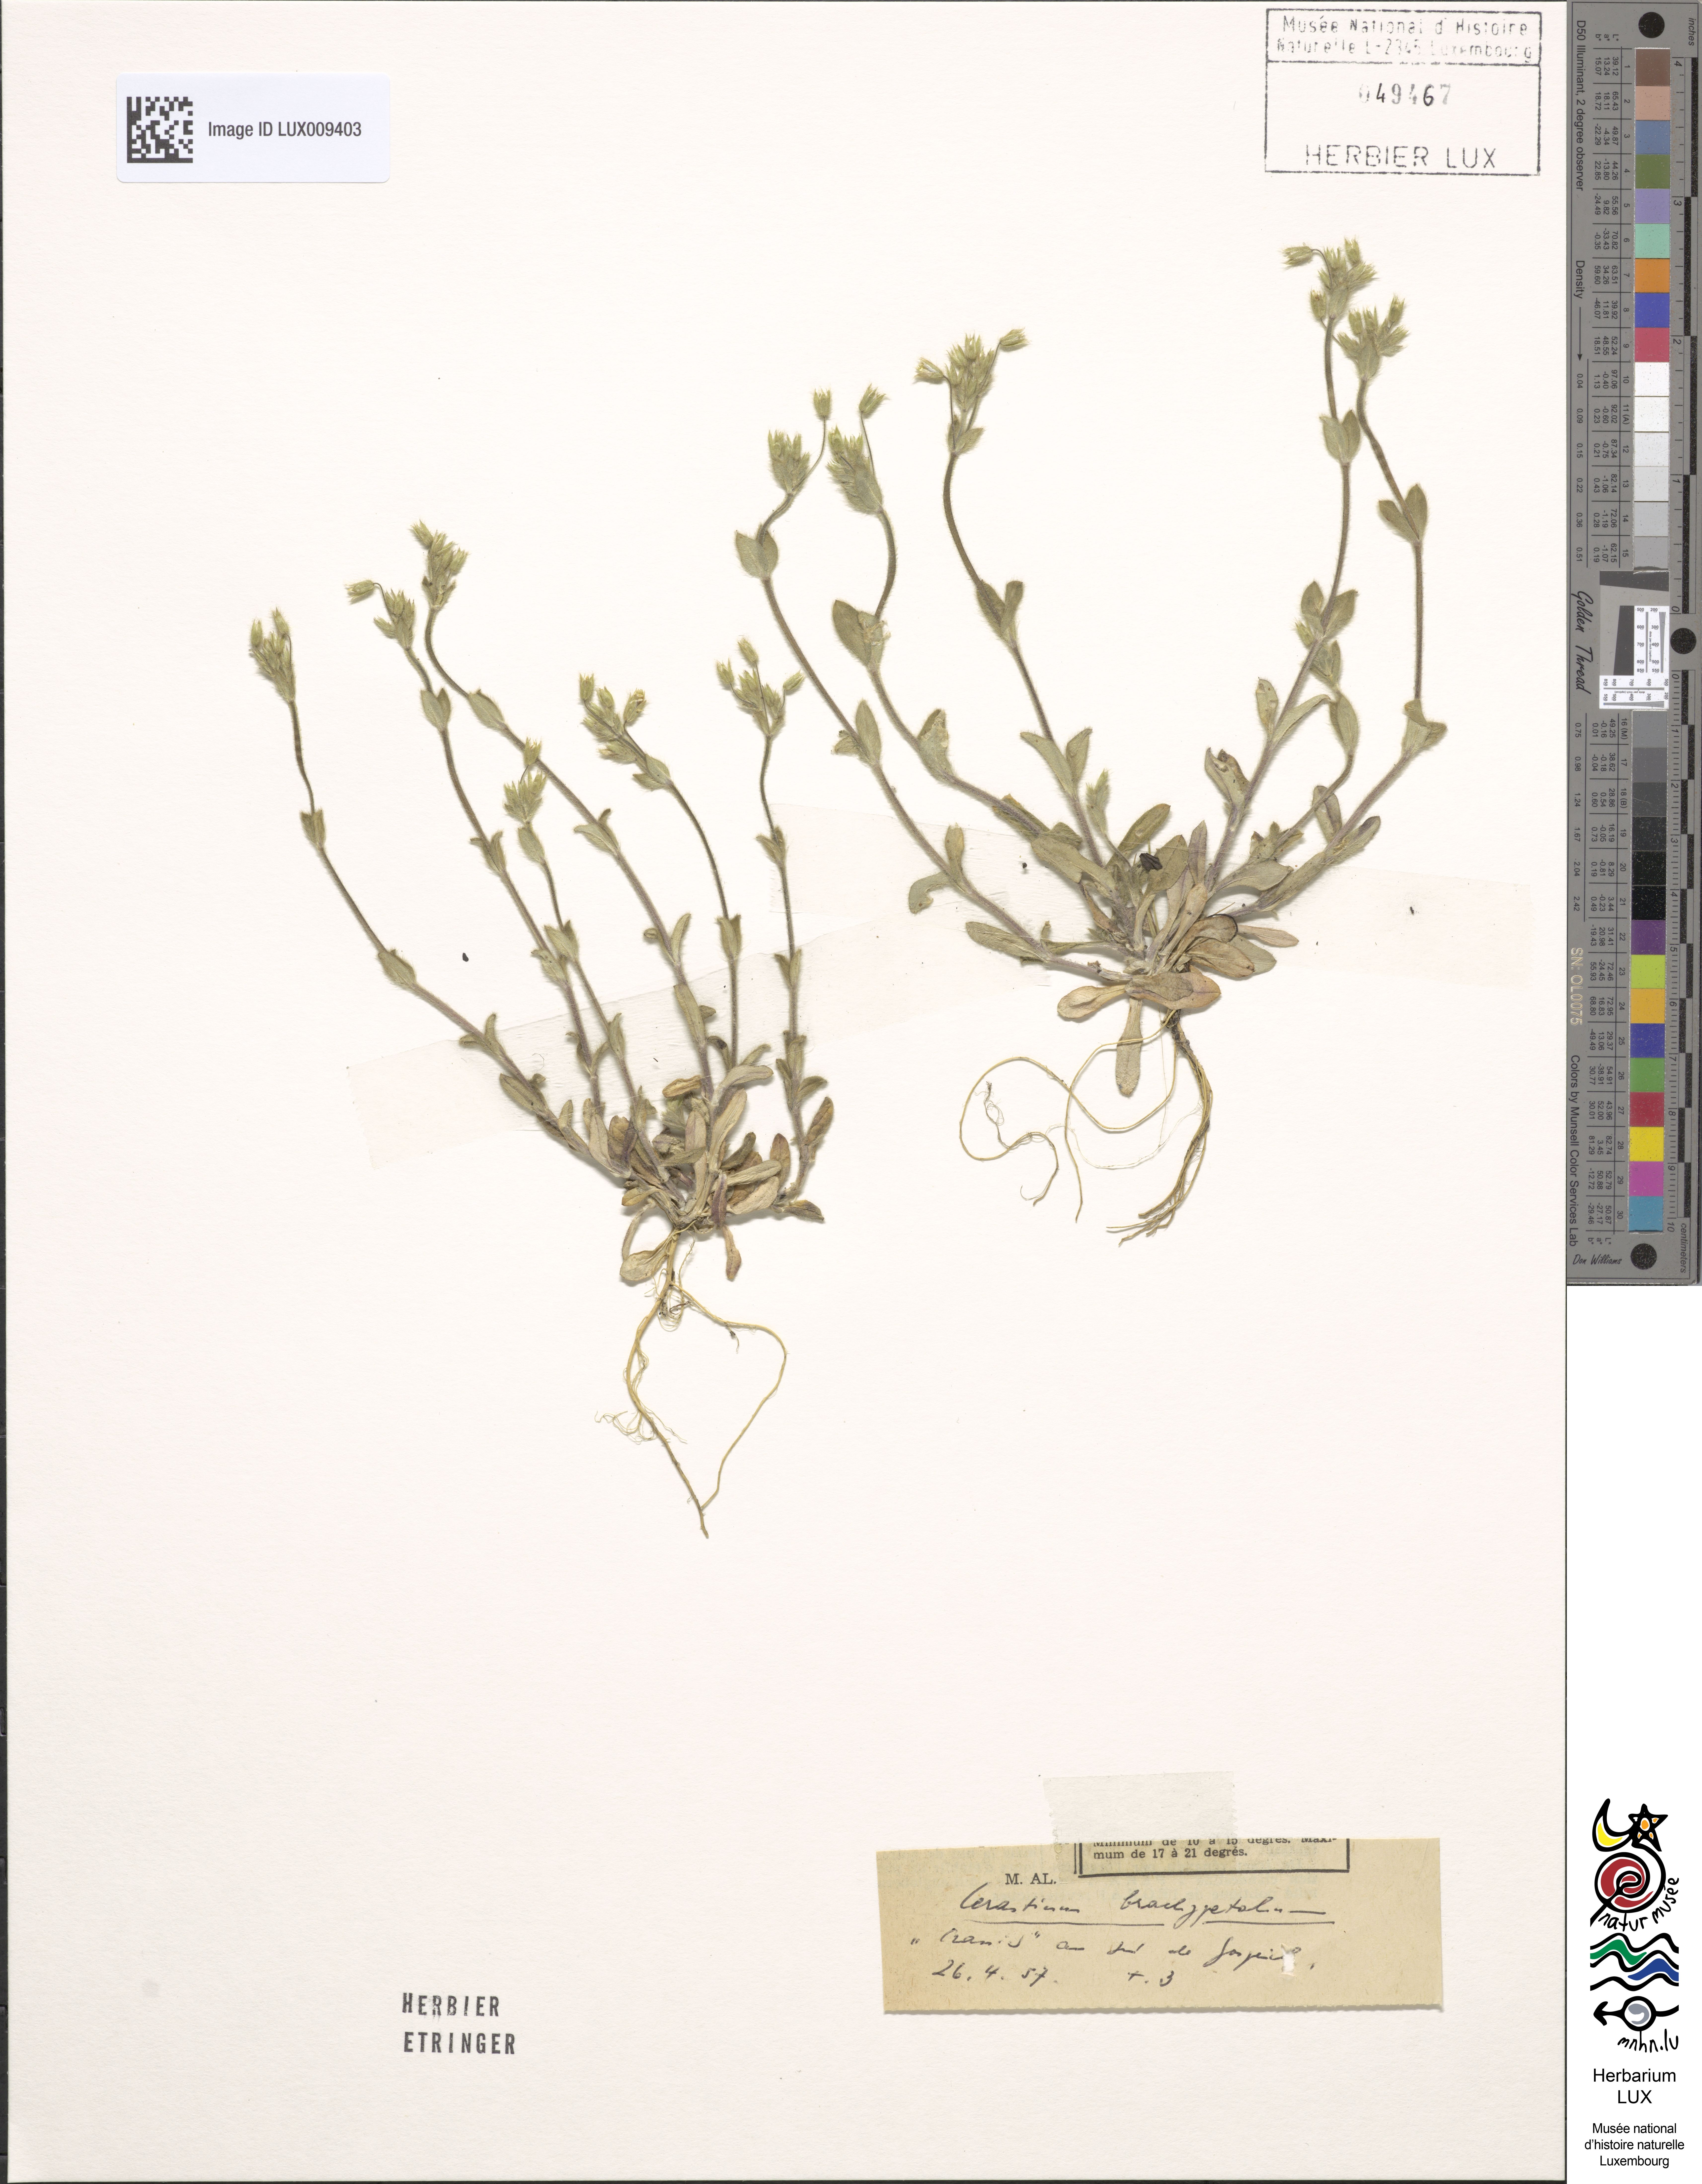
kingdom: Plantae
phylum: Tracheophyta
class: Magnoliopsida
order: Caryophyllales
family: Caryophyllaceae
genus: Cerastium
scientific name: Cerastium brachypetalum
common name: Grey mouse-ear
